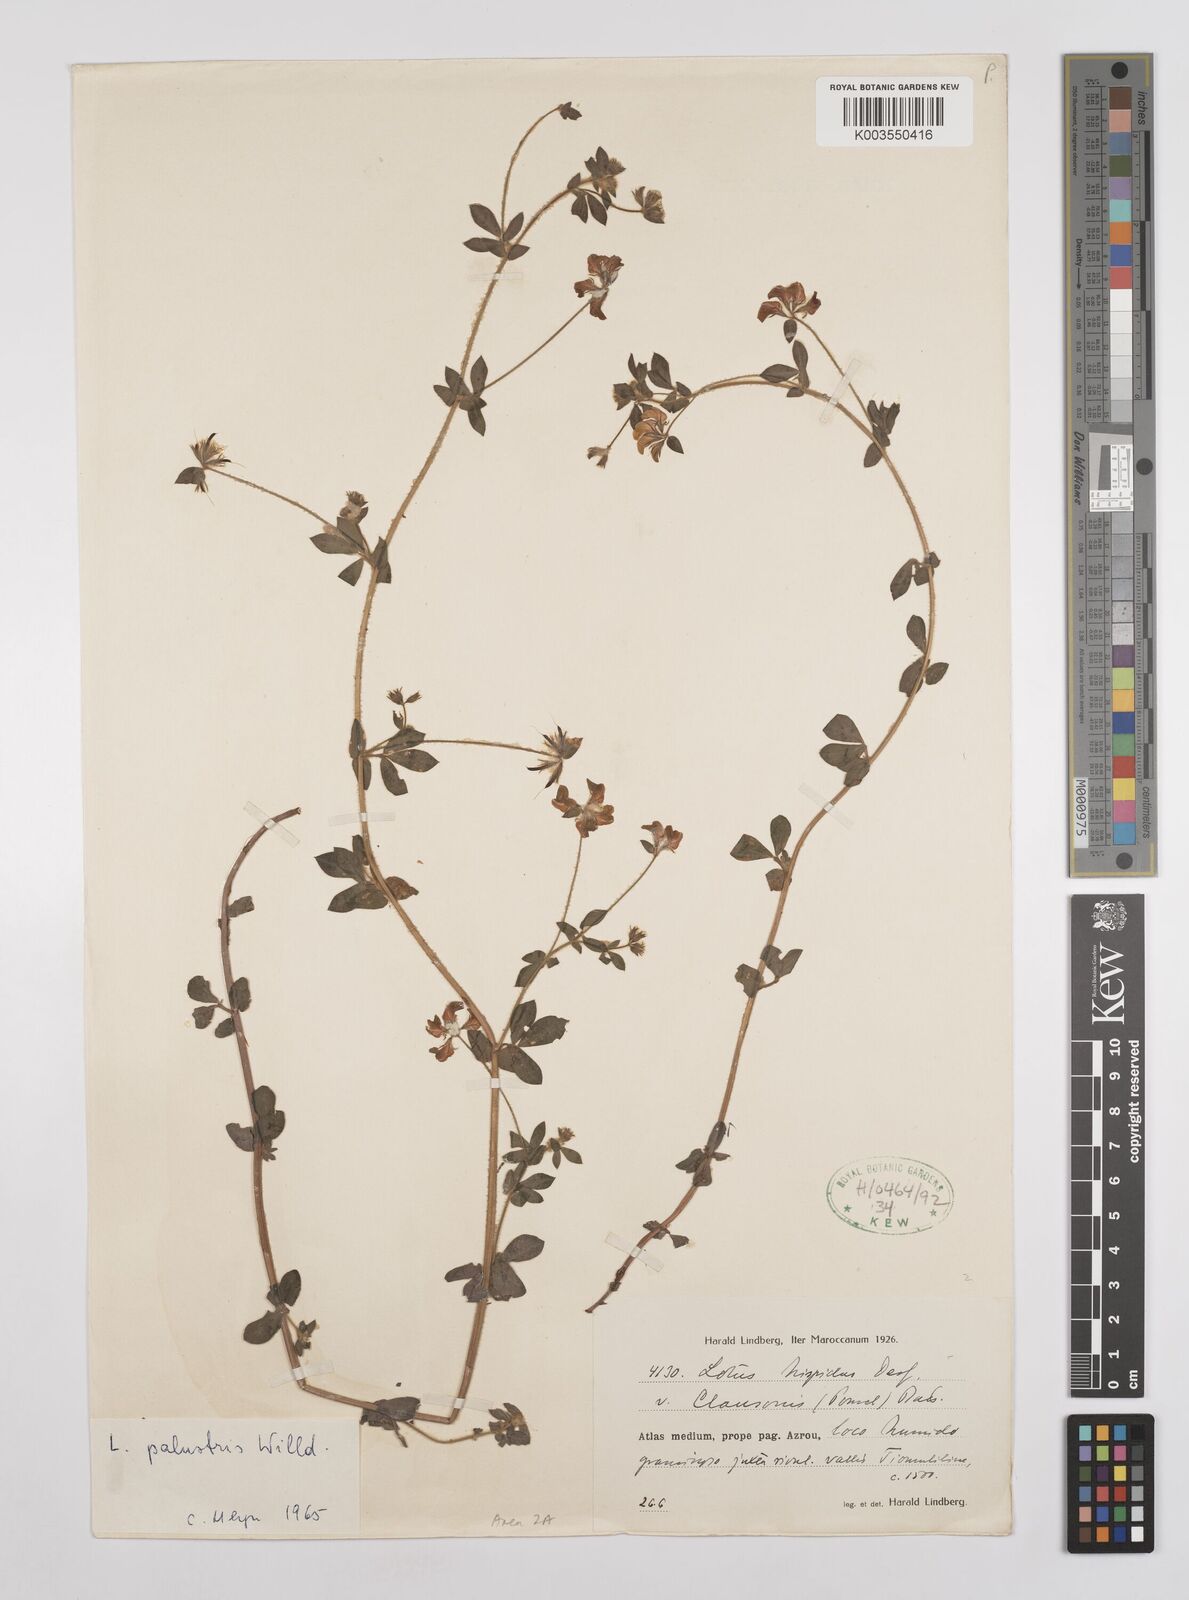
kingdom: Plantae
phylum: Tracheophyta
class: Magnoliopsida
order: Fabales
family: Fabaceae
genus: Lotus
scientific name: Lotus palustris
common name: Large birds-foot trefoil
